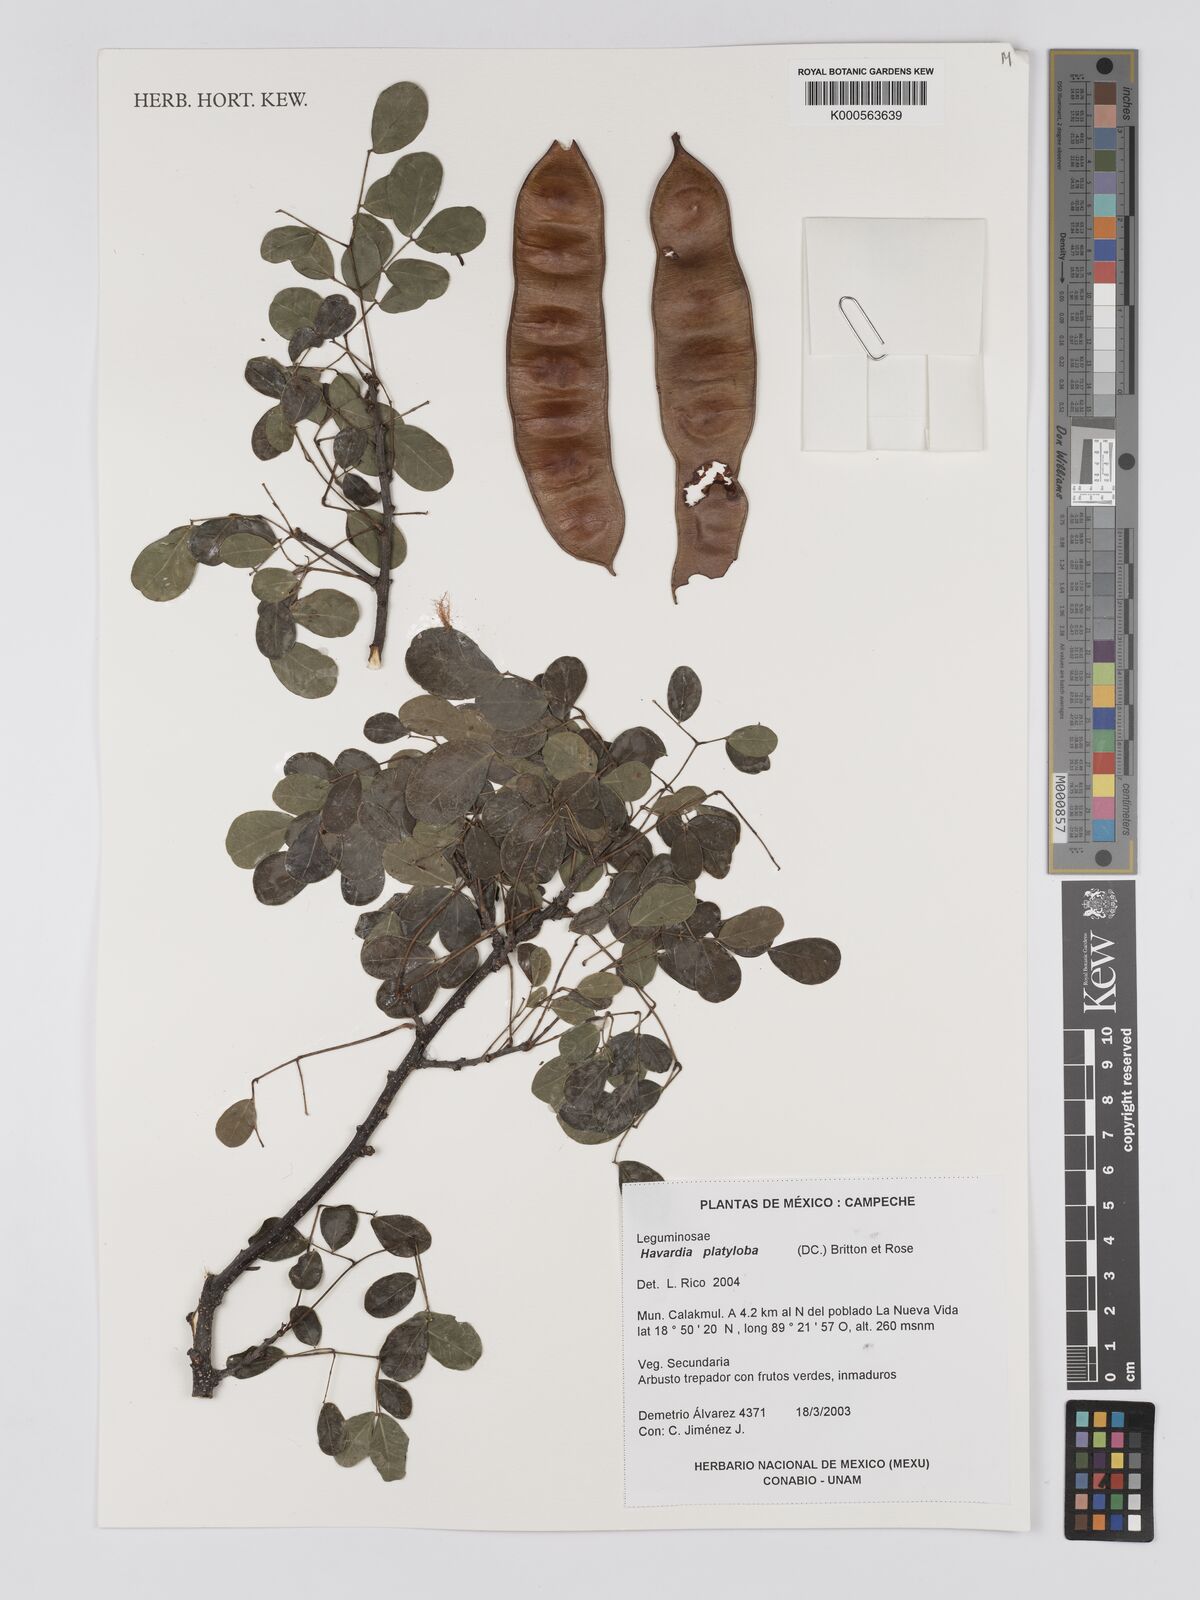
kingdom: Plantae
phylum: Tracheophyta
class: Magnoliopsida
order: Fabales
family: Fabaceae
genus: Havardia
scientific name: Havardia platyloba
